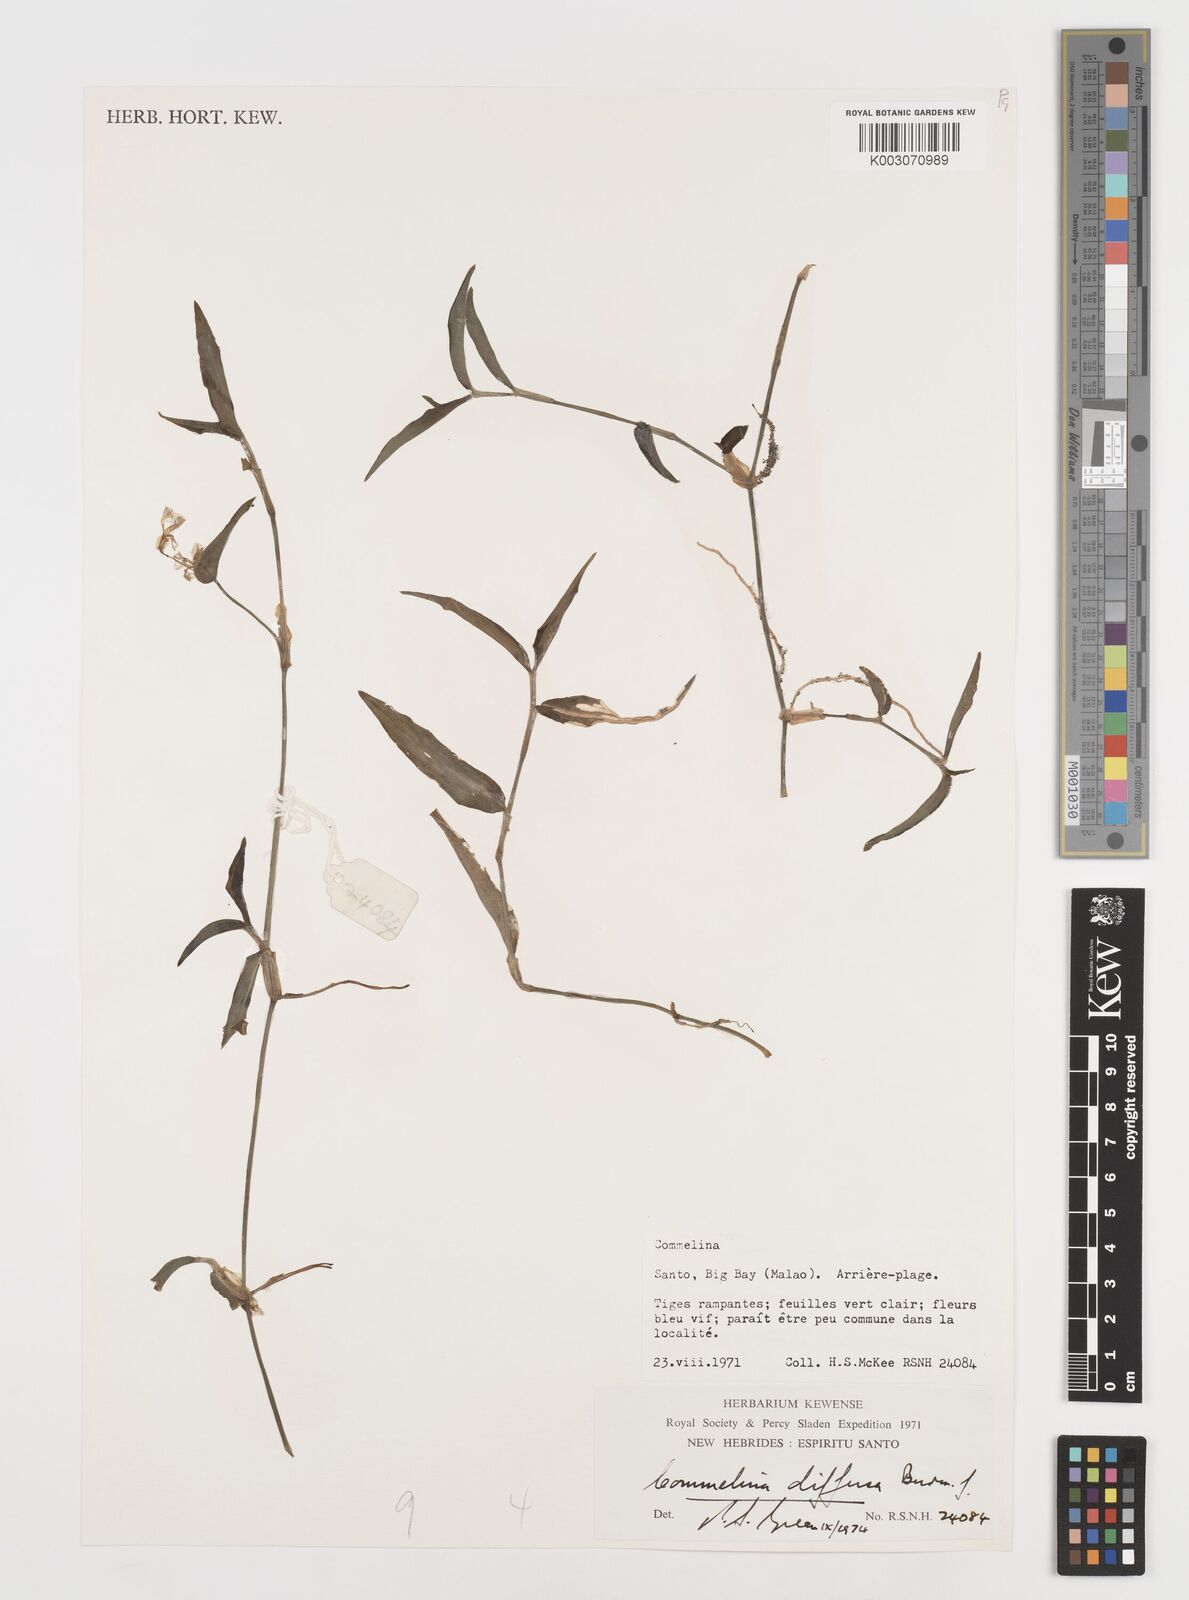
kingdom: Plantae
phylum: Tracheophyta
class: Liliopsida
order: Commelinales
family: Commelinaceae
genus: Commelina
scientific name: Commelina diffusa
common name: Climbing dayflower
